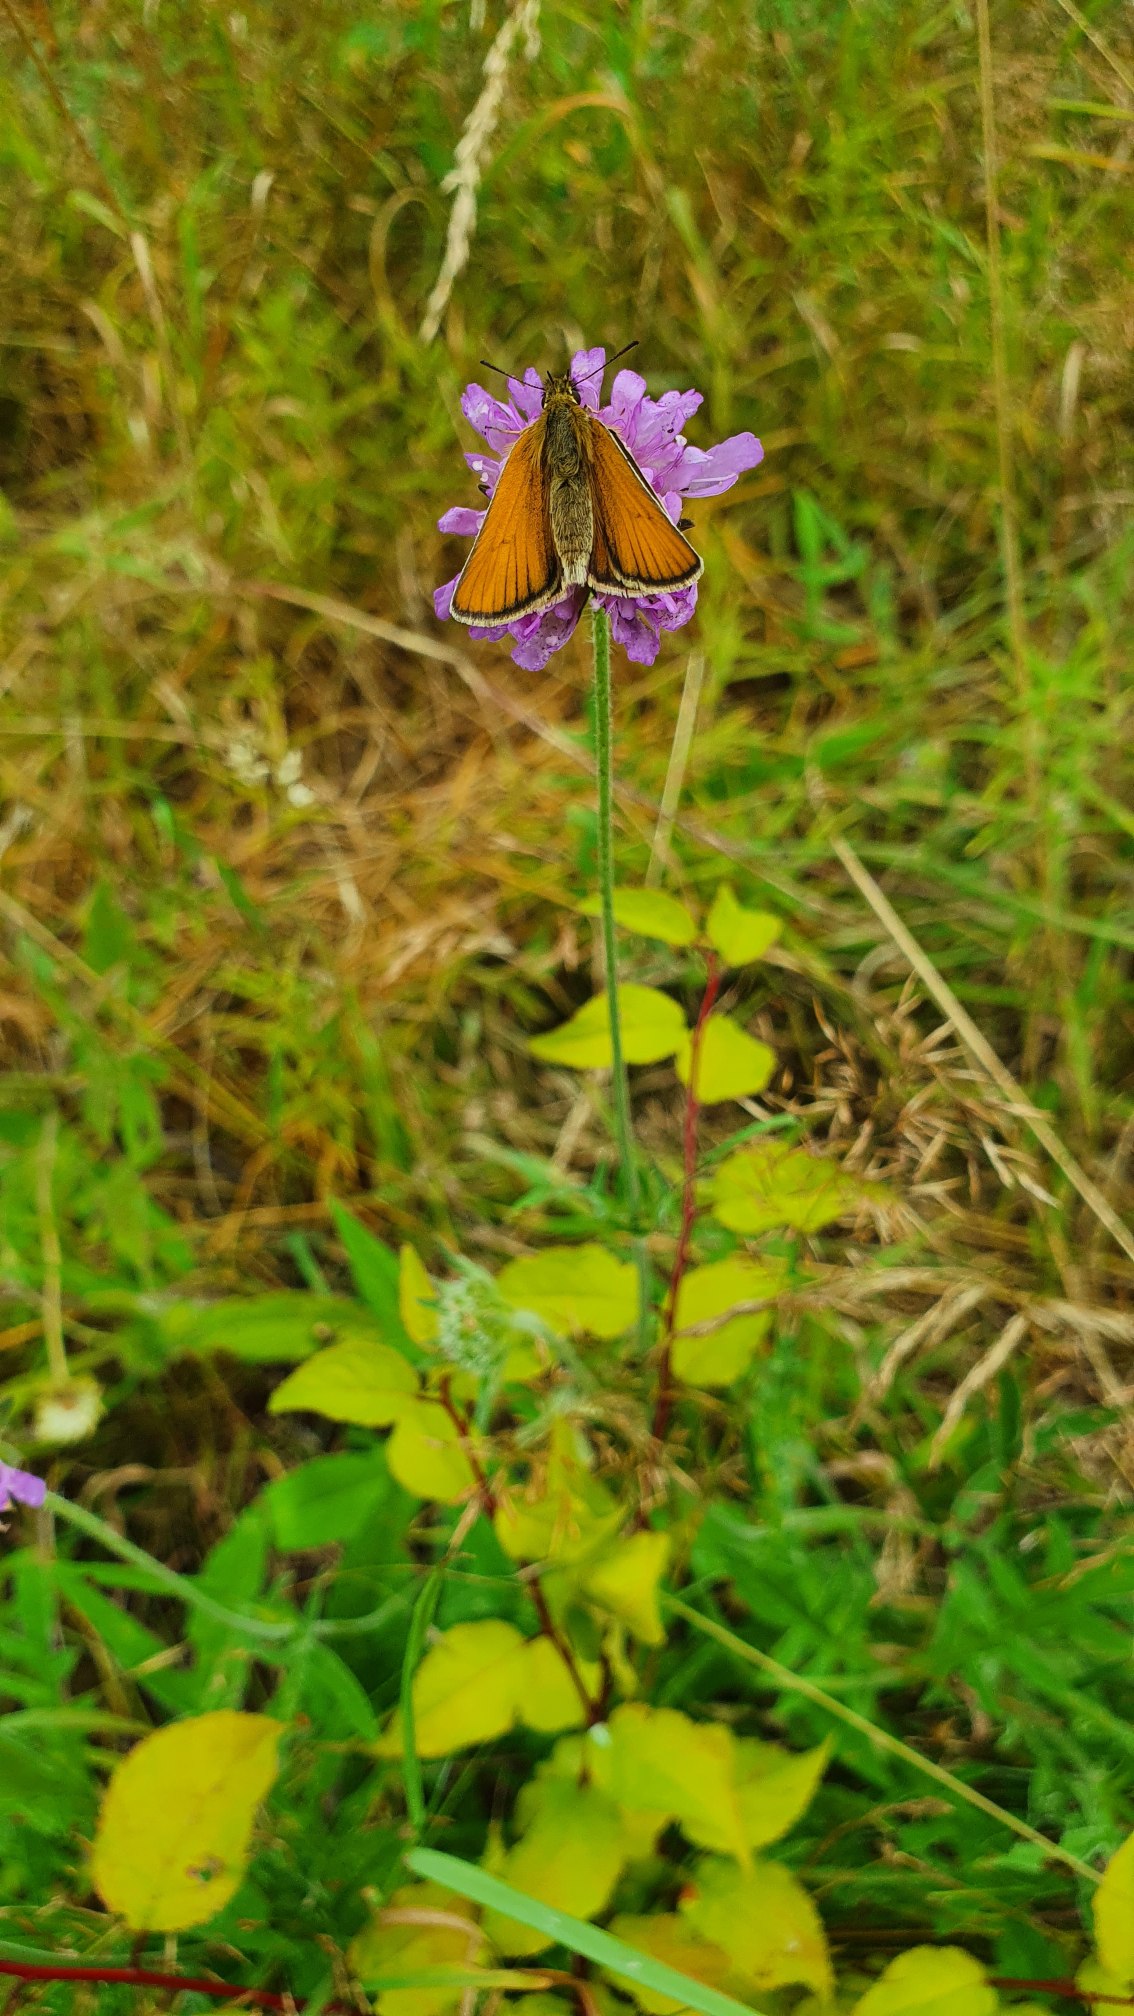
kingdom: Animalia
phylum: Arthropoda
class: Insecta
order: Lepidoptera
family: Hesperiidae
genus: Thymelicus
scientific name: Thymelicus lineola
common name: Stregbredpande
